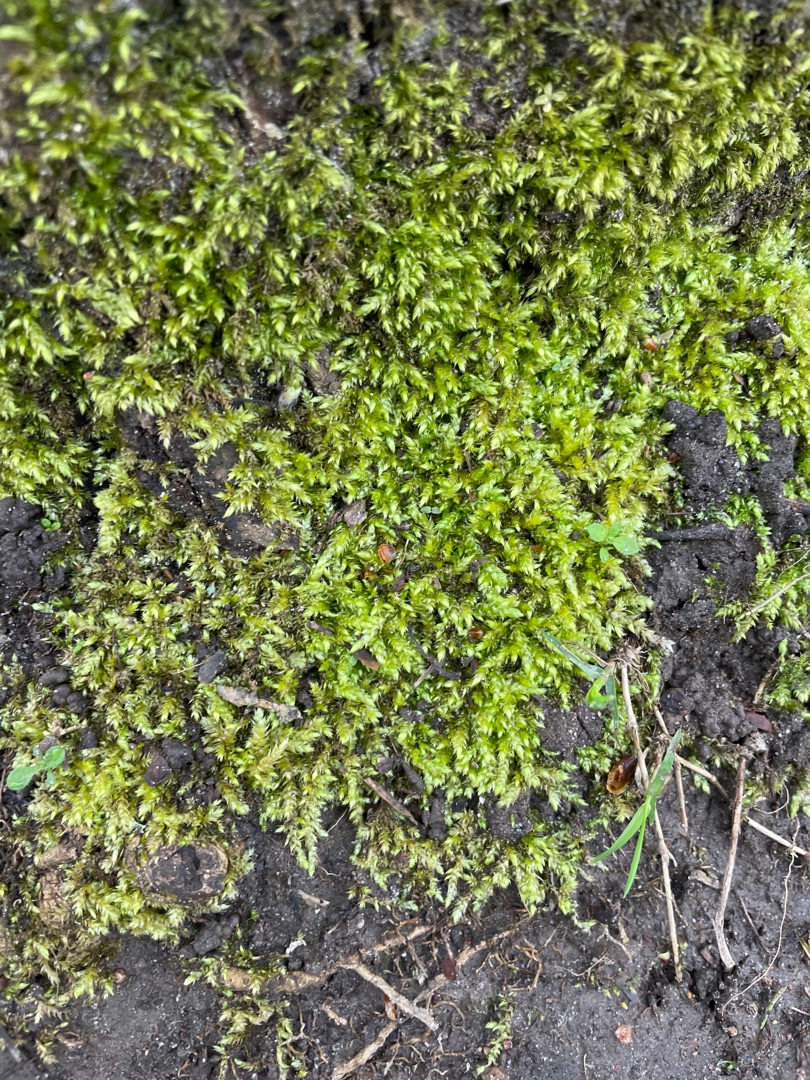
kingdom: Plantae
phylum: Bryophyta
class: Bryopsida
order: Hypnales
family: Brachytheciaceae
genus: Brachythecium
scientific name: Brachythecium rutabulum
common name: Almindelig kortkapsel
